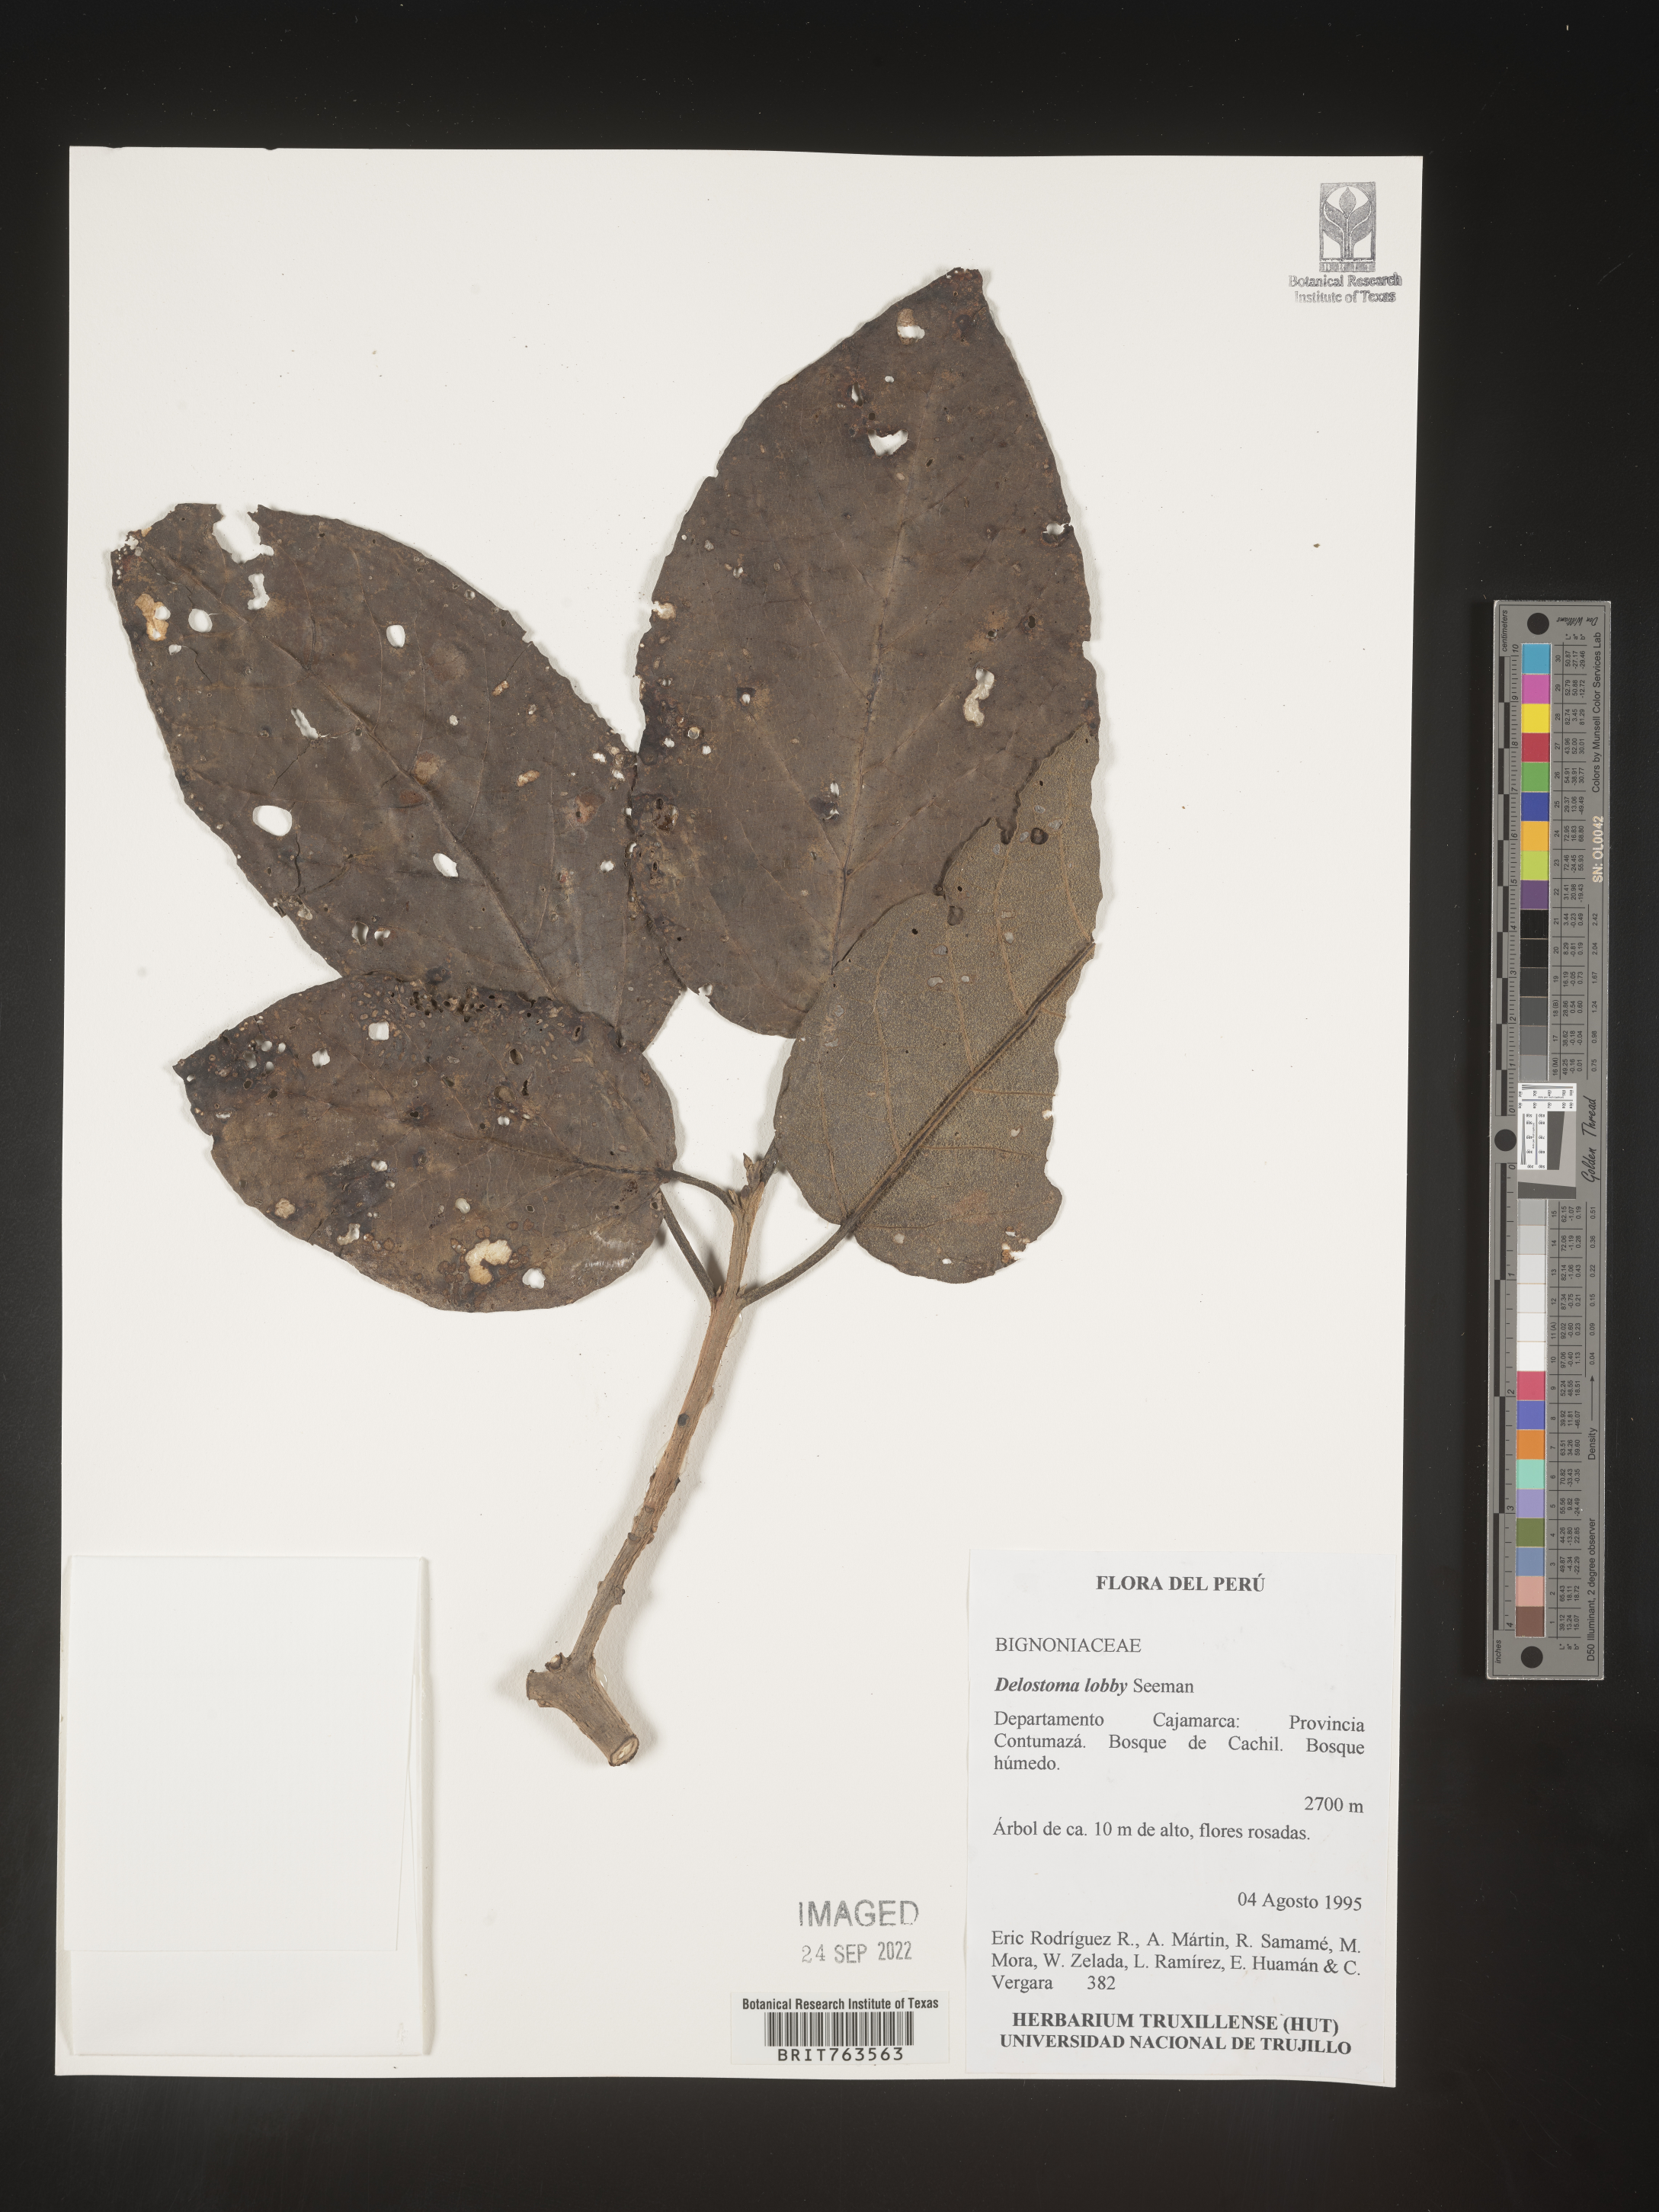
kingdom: Plantae
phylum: Tracheophyta
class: Magnoliopsida
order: Lamiales
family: Bignoniaceae
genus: Delostoma
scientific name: Delostoma lobbii
